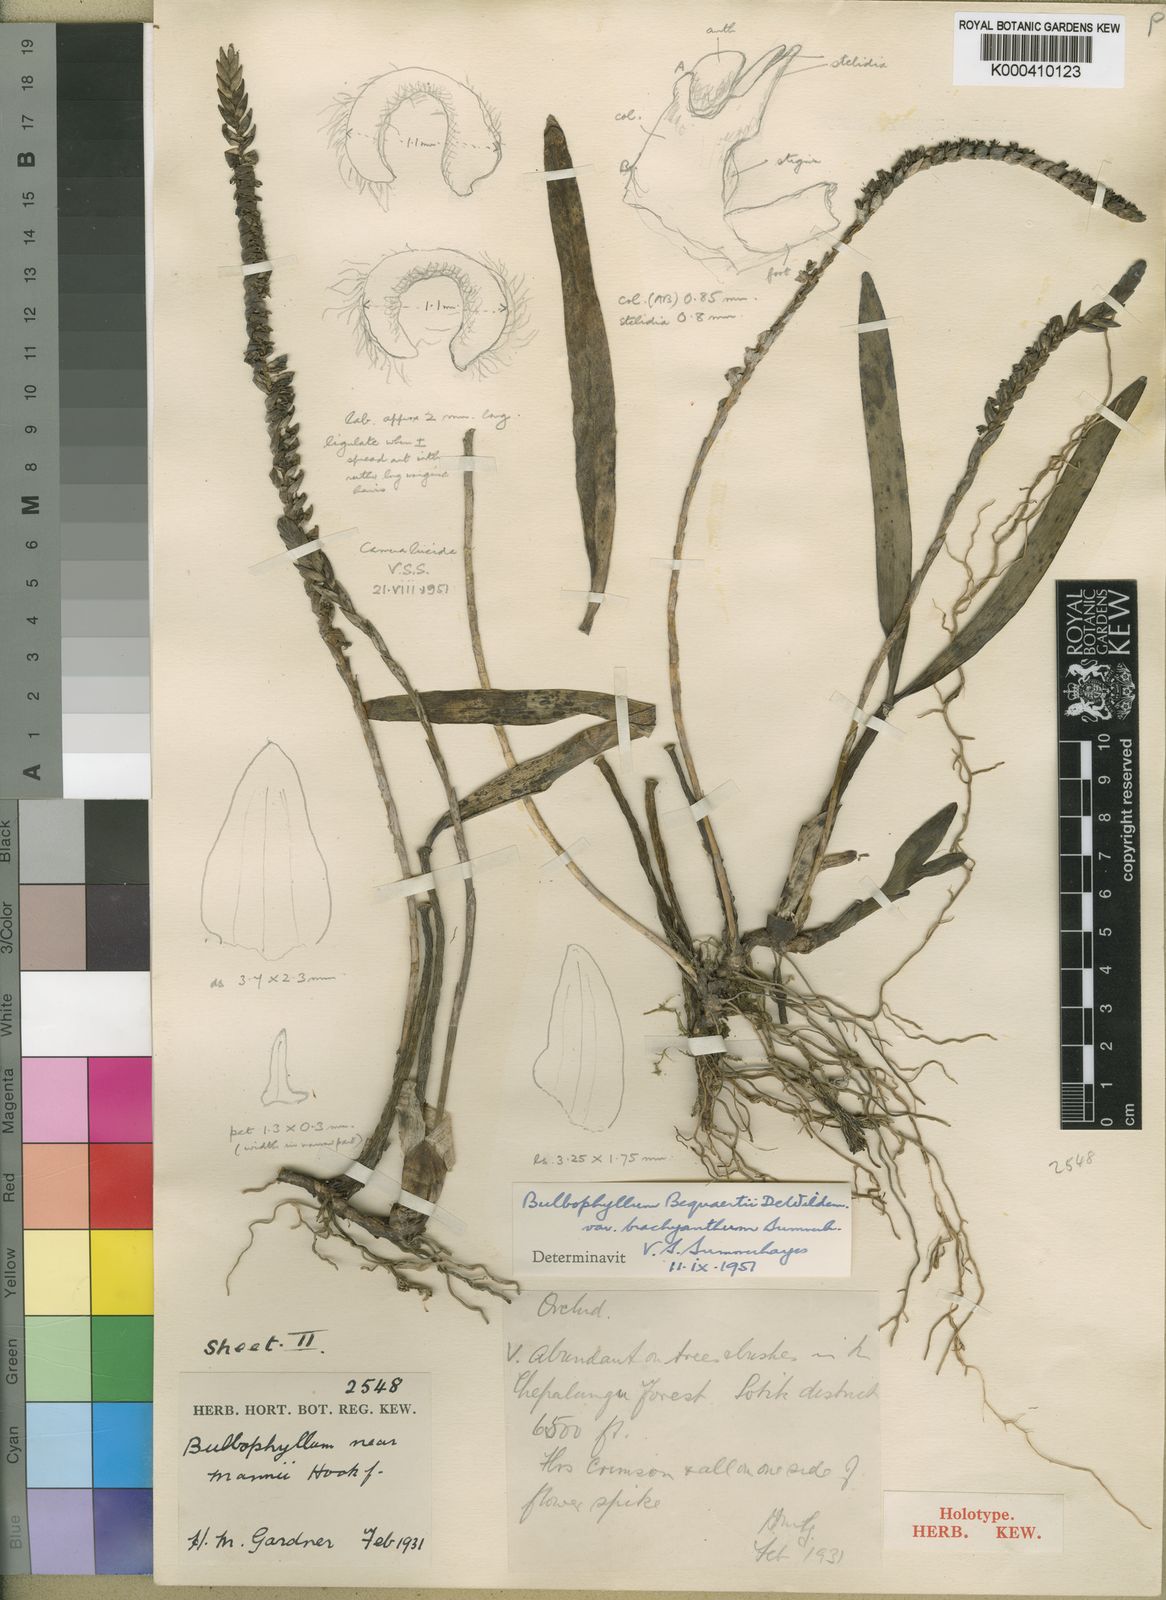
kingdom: Plantae
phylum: Tracheophyta
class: Liliopsida
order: Asparagales
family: Orchidaceae
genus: Bulbophyllum
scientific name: Bulbophyllum cochleatum
